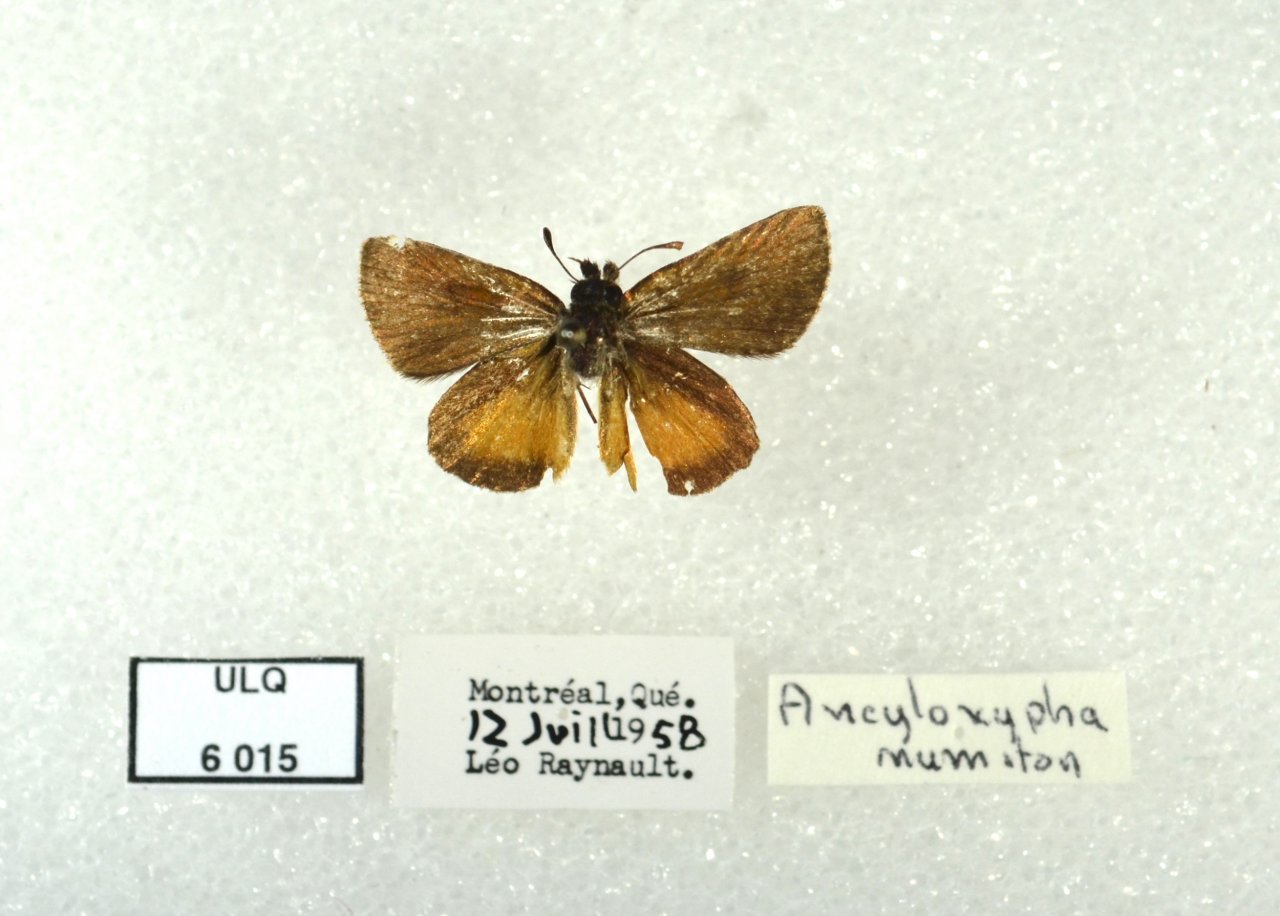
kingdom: Animalia
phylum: Arthropoda
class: Insecta
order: Lepidoptera
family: Hesperiidae
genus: Ancyloxypha
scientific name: Ancyloxypha numitor
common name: Least Skipper
